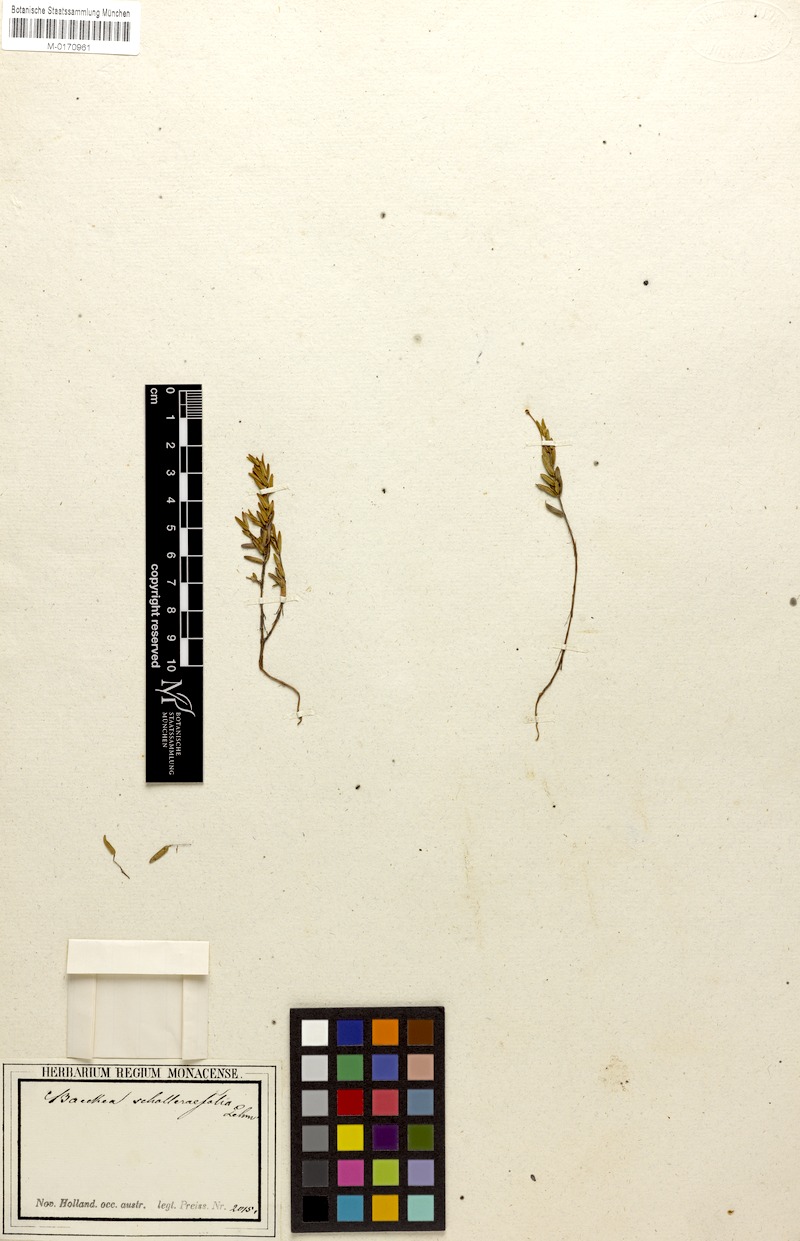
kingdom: Plantae
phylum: Tracheophyta
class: Magnoliopsida
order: Myrtales
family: Myrtaceae
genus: Rinzia
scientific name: Rinzia schollerifolia
